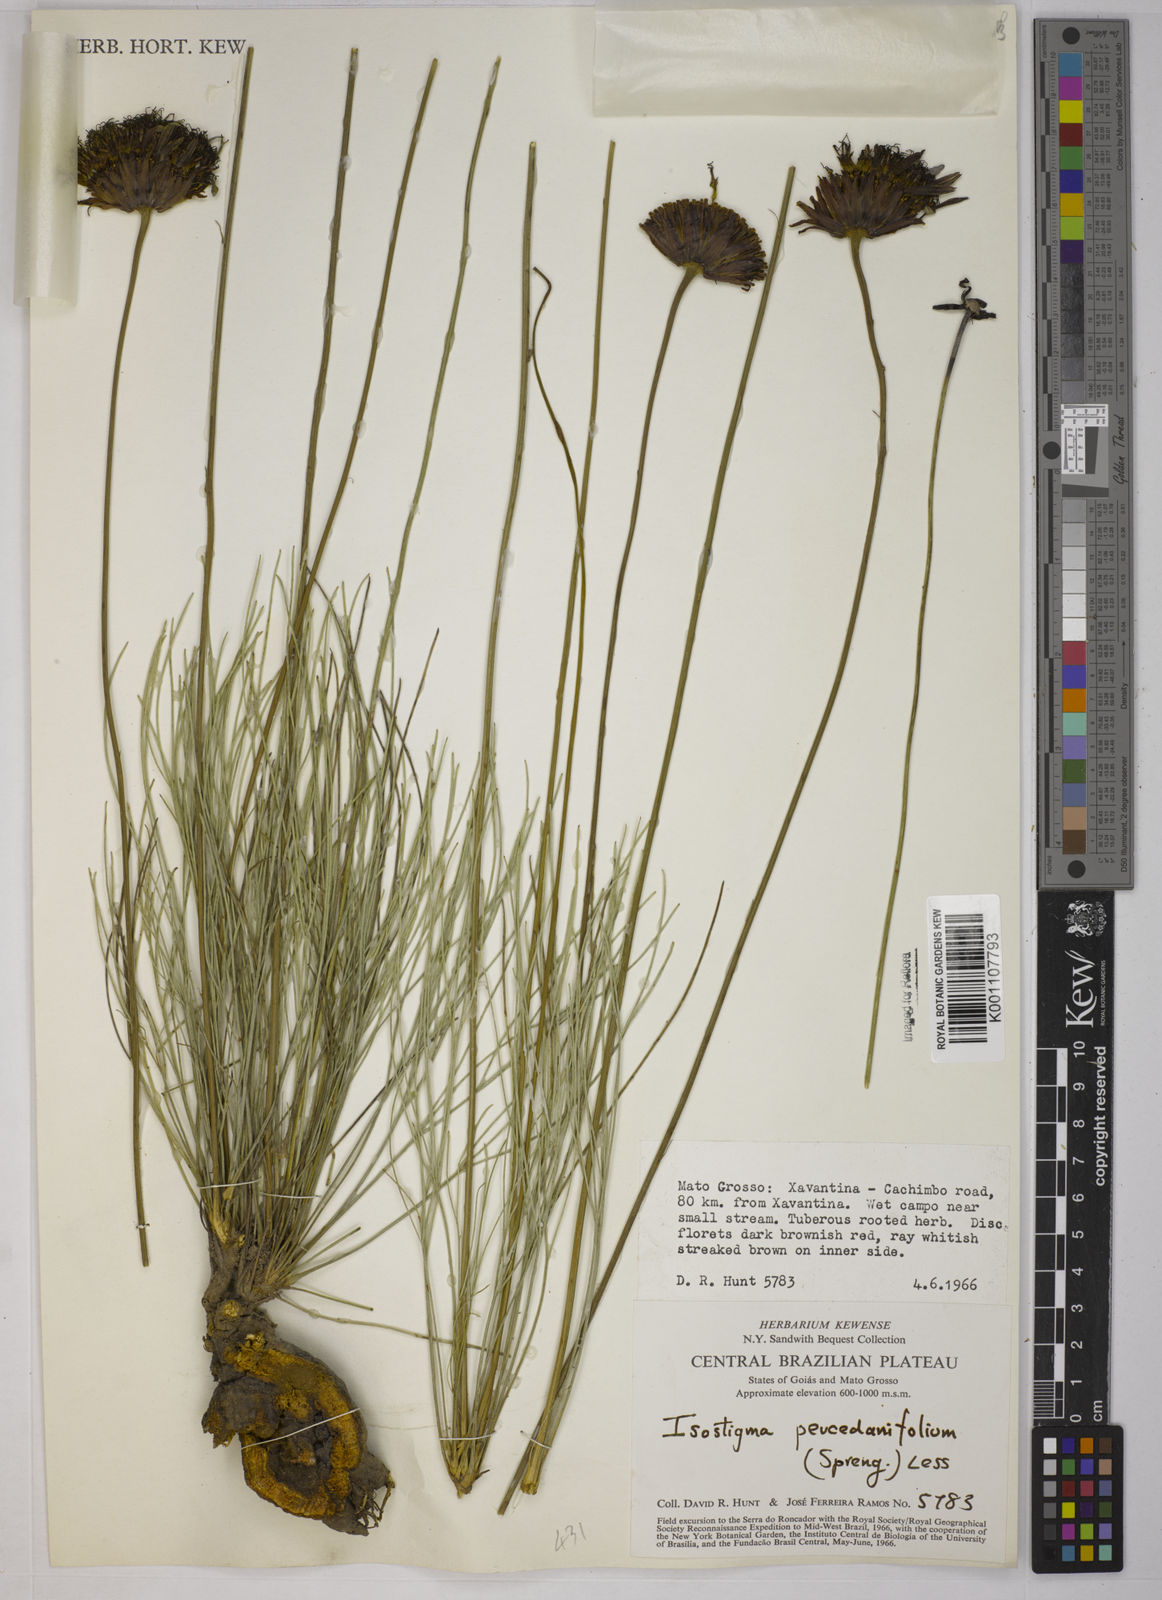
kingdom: Plantae
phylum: Tracheophyta
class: Magnoliopsida
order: Asterales
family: Asteraceae
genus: Isostigma
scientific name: Isostigma
